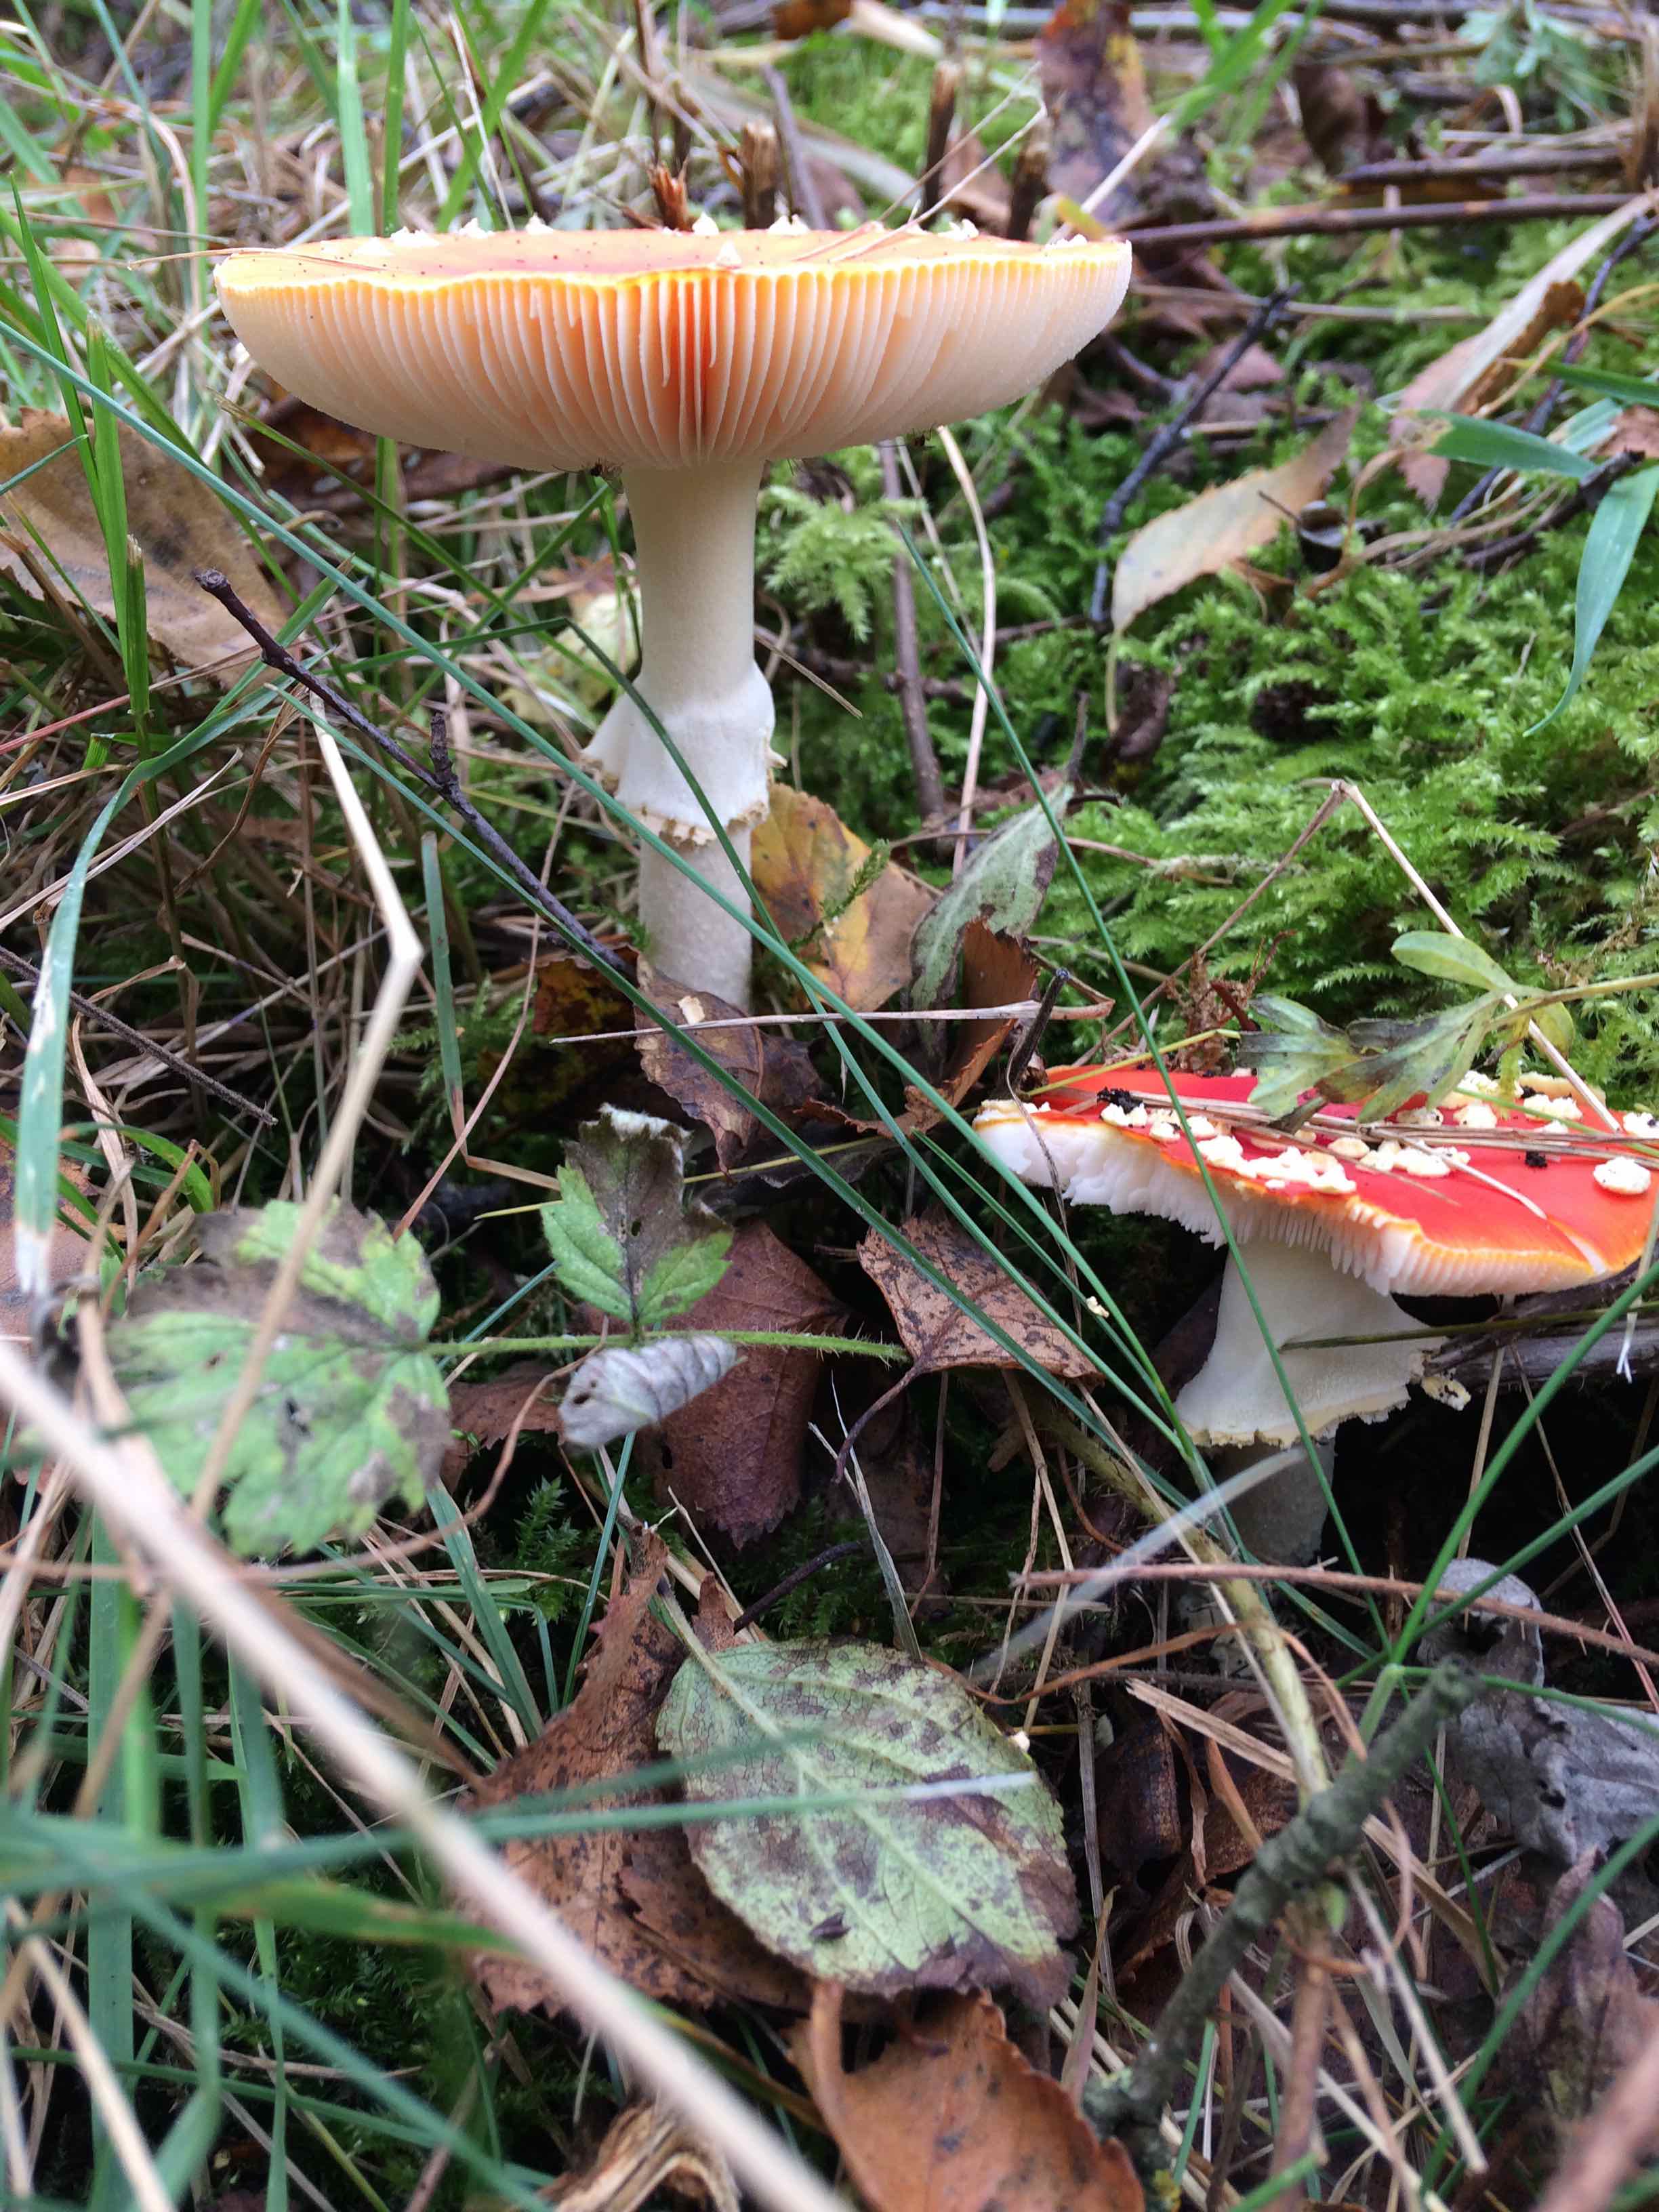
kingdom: Fungi
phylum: Basidiomycota
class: Agaricomycetes
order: Agaricales
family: Amanitaceae
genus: Amanita
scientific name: Amanita muscaria
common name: rød fluesvamp
